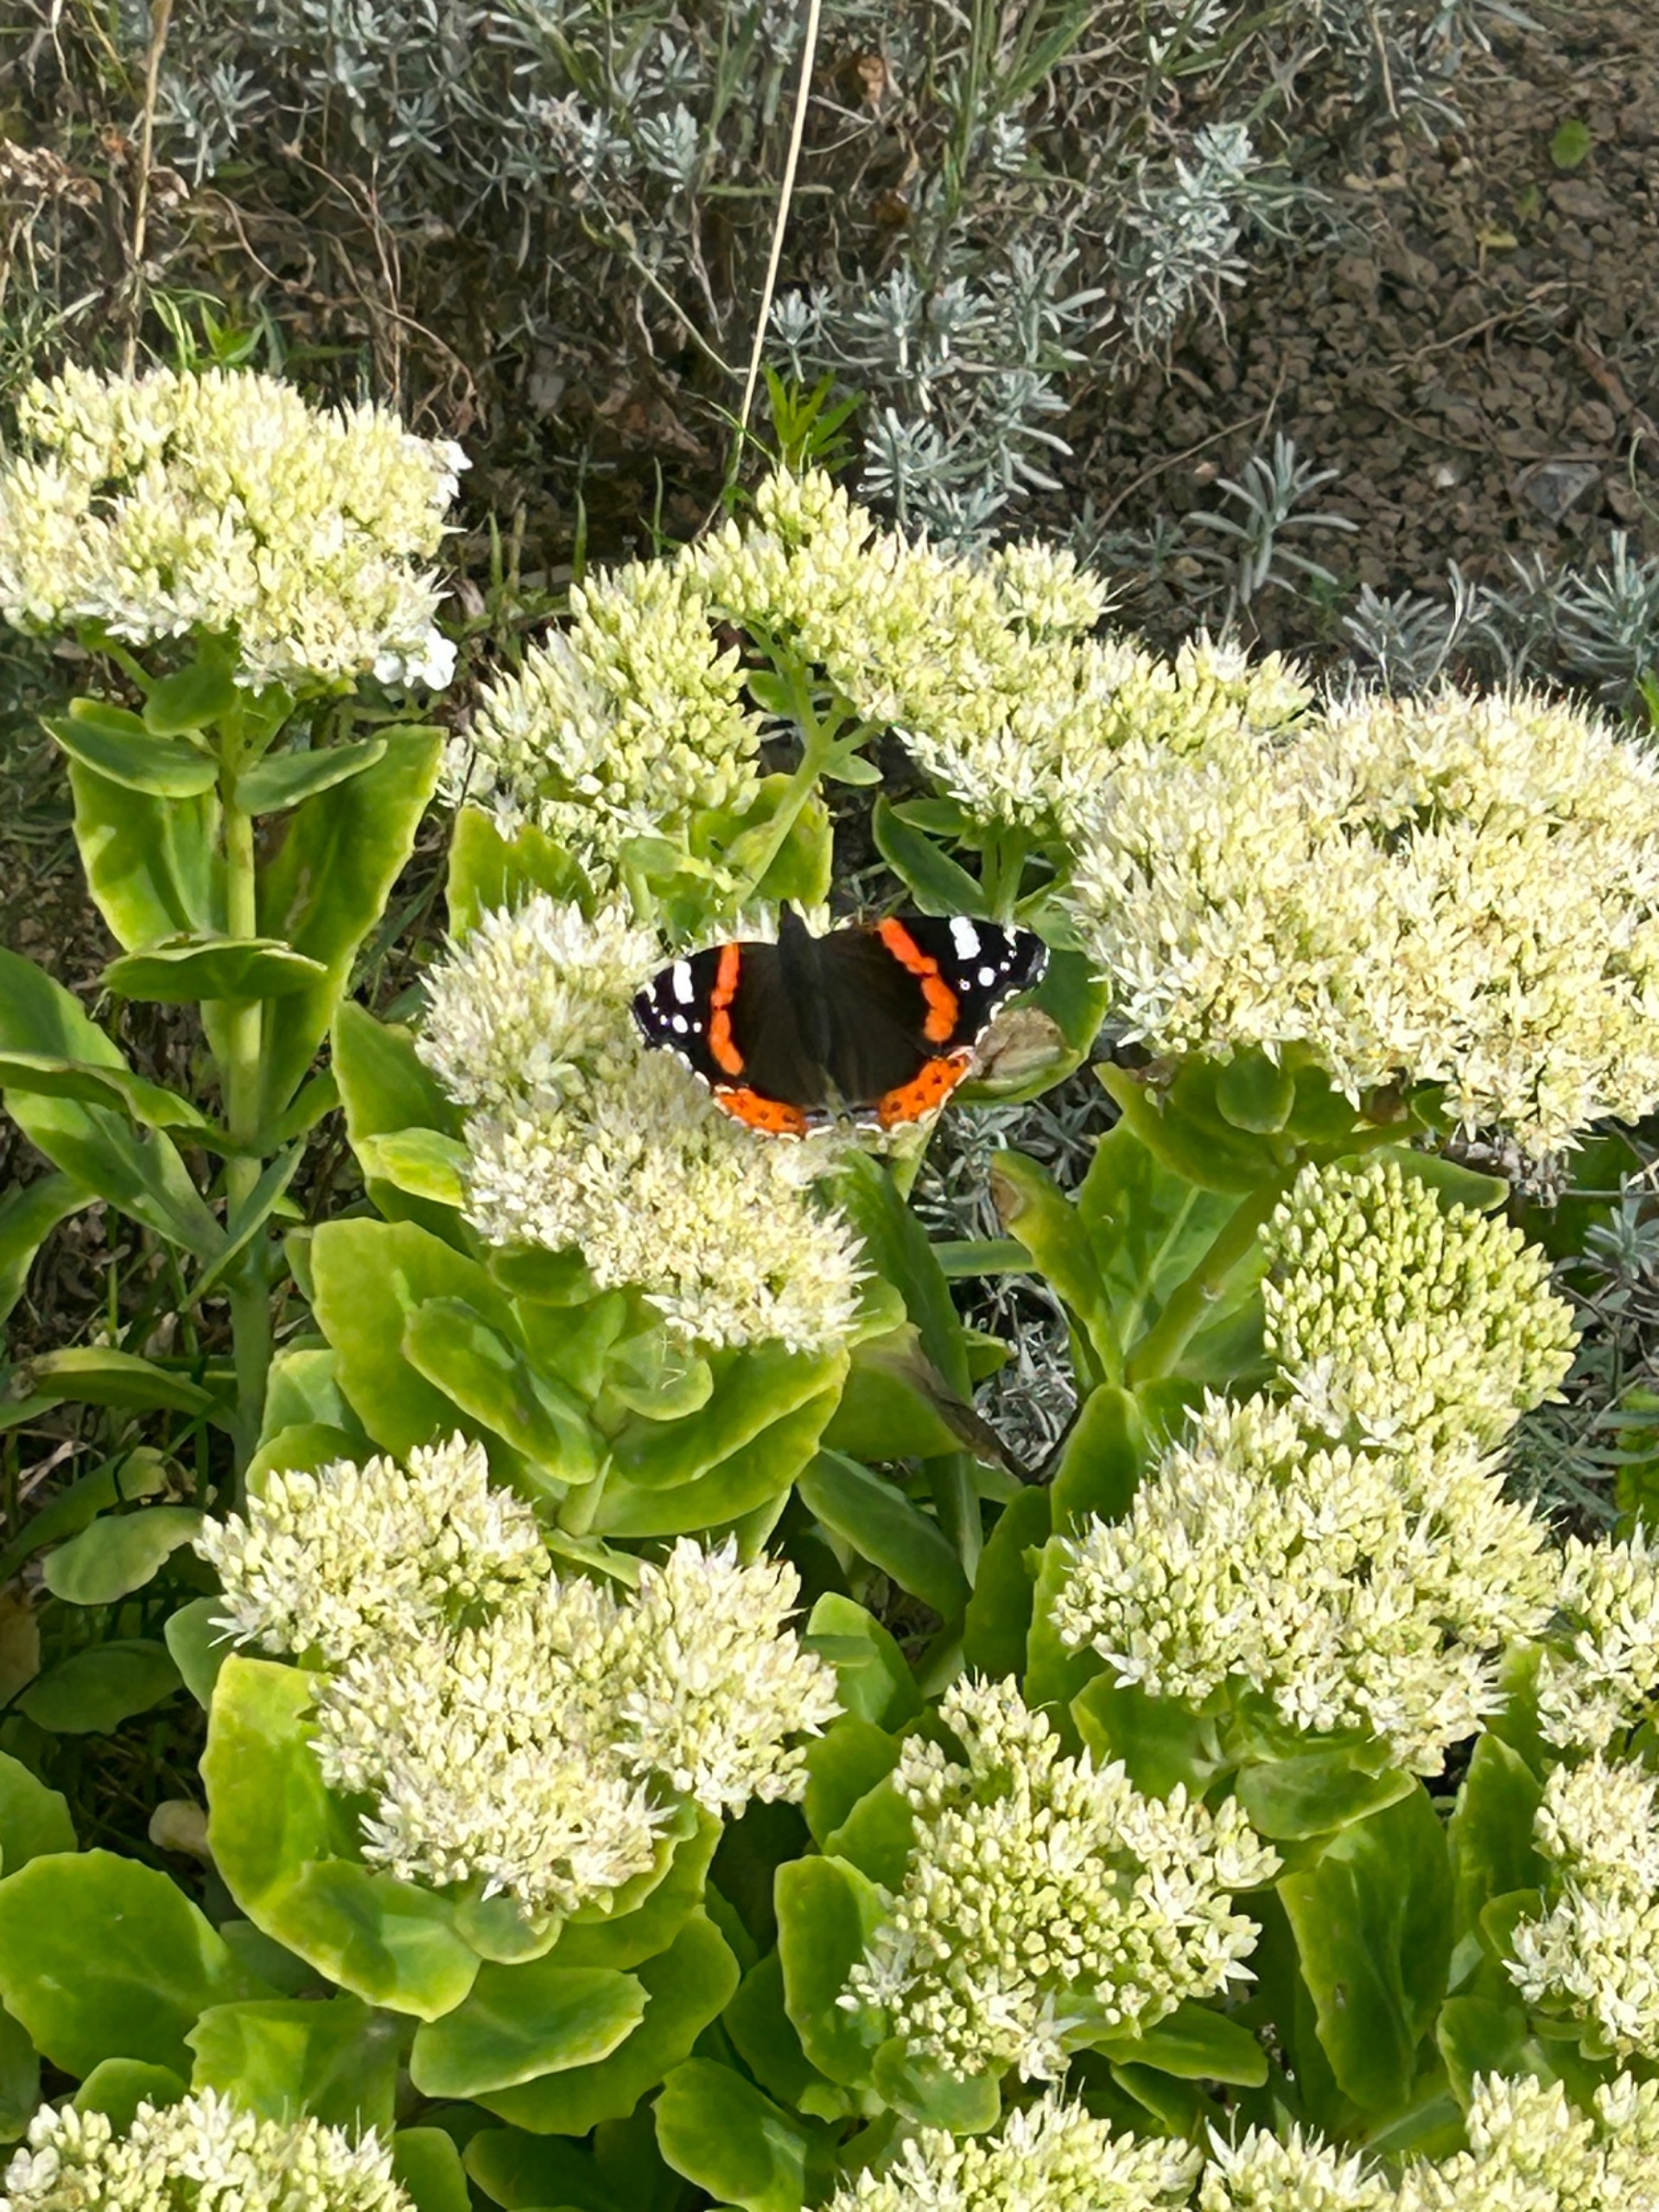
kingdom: Animalia
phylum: Arthropoda
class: Insecta
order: Lepidoptera
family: Nymphalidae
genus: Vanessa
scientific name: Vanessa atalanta
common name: Admiral
